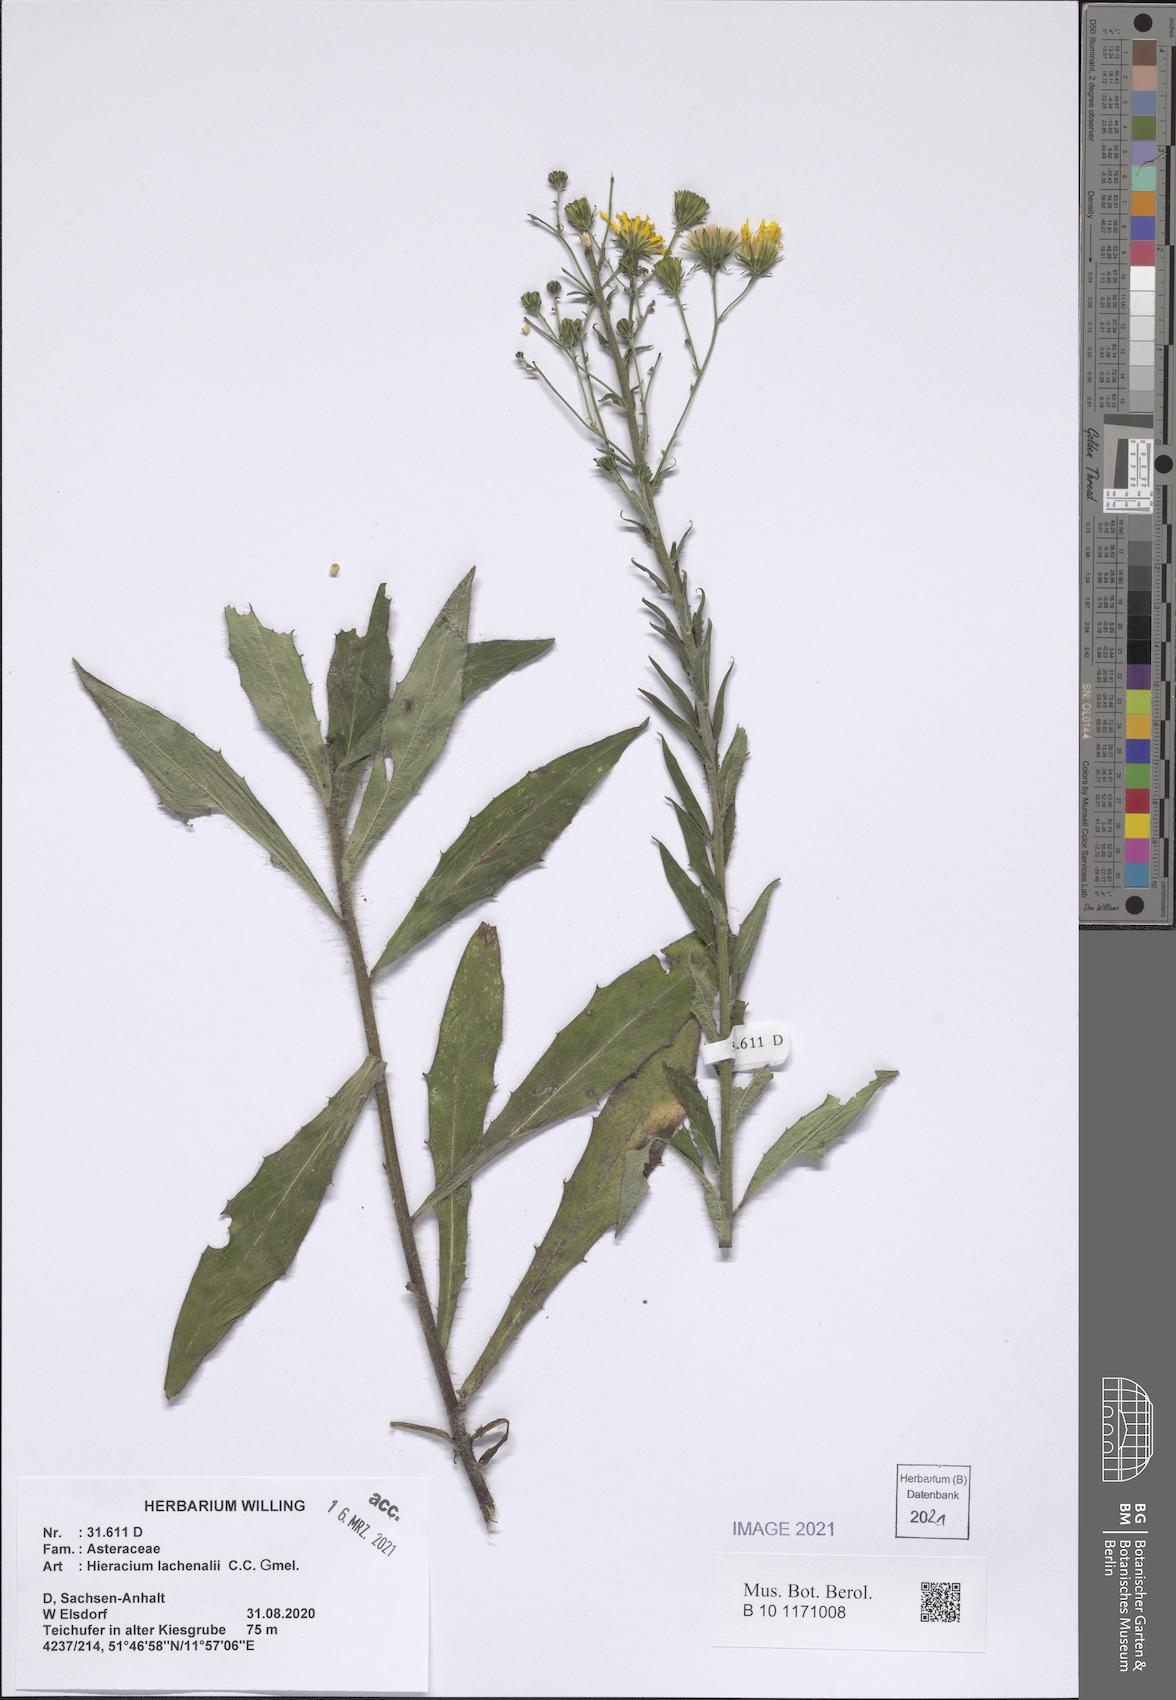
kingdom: Plantae
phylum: Tracheophyta
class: Magnoliopsida
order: Asterales
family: Asteraceae
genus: Hieracium
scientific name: Hieracium lachenalii
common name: Common hawkweed
